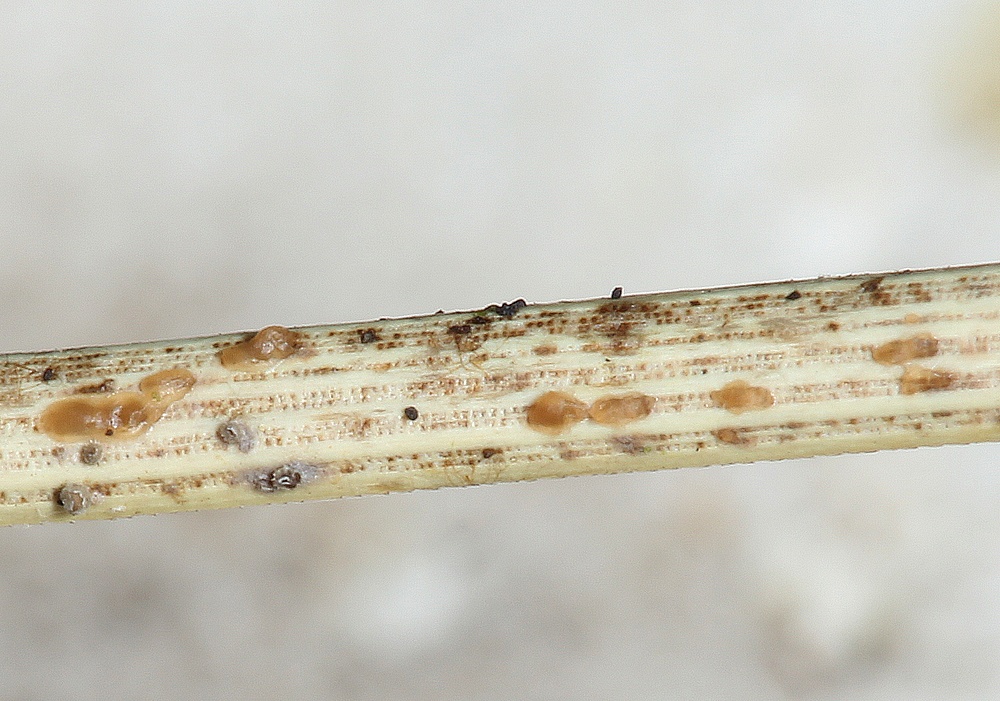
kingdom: Fungi
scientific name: Fungi
